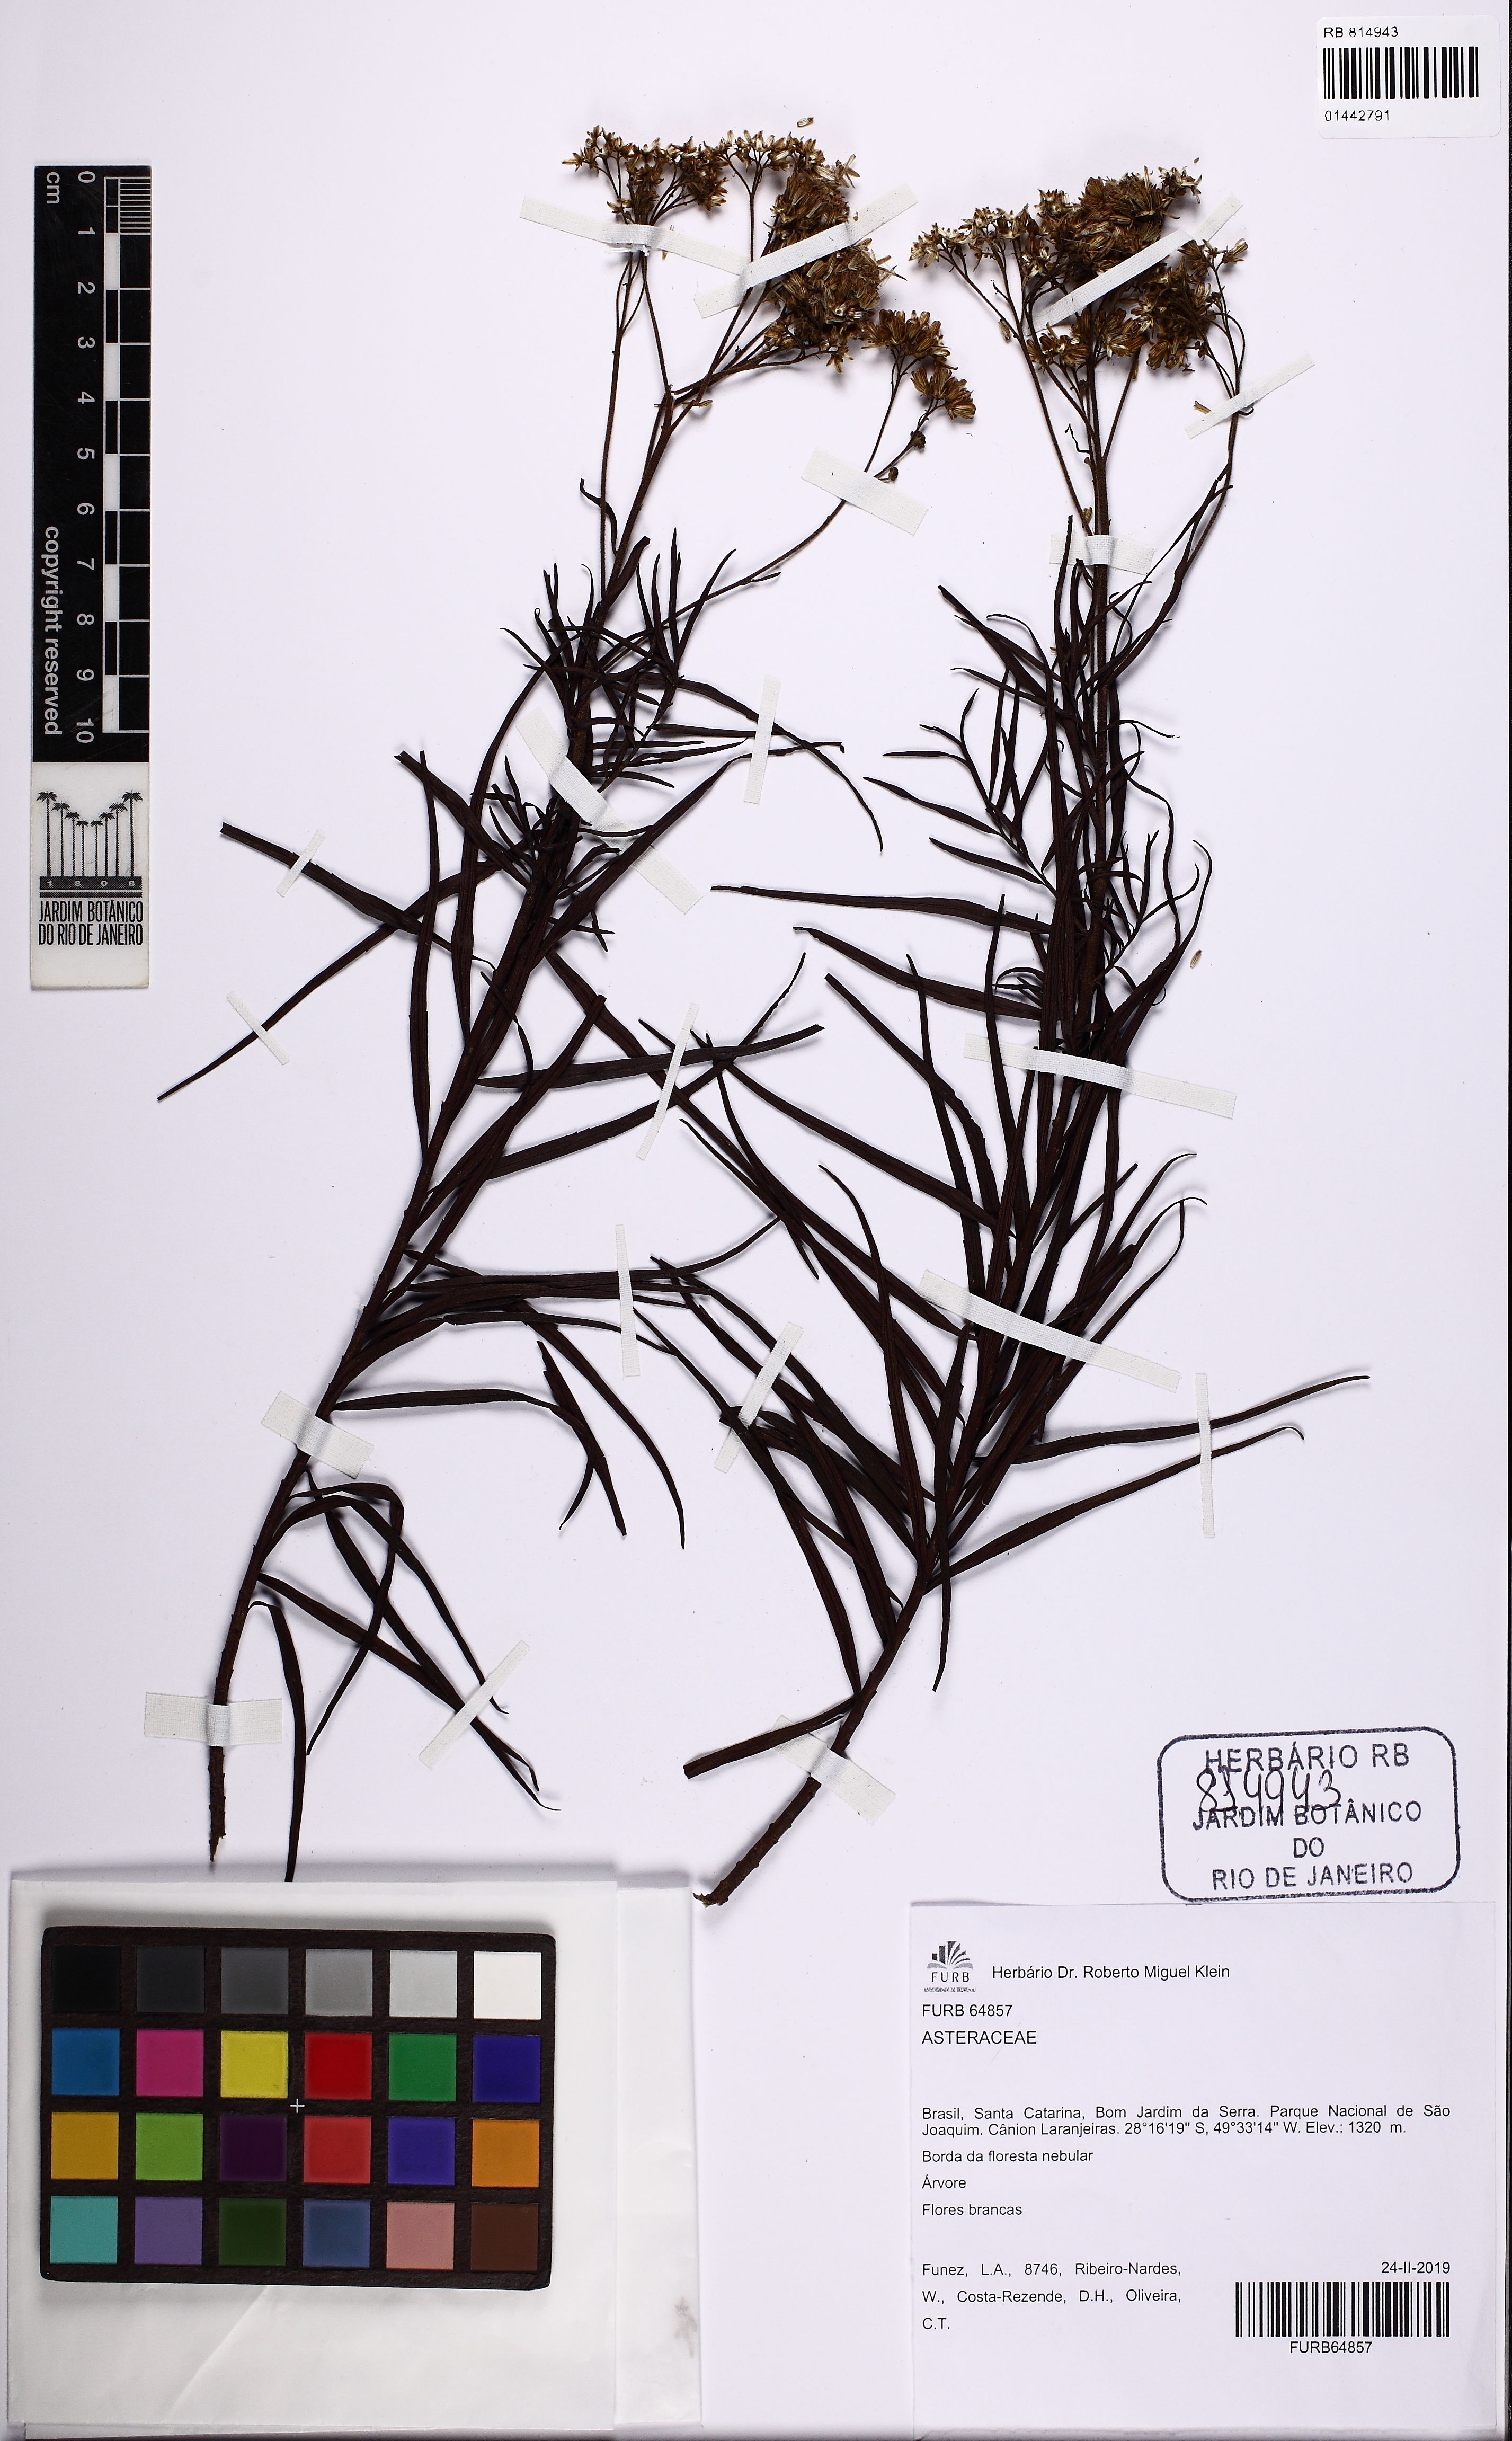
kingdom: Plantae
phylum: Tracheophyta
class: Magnoliopsida
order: Asterales
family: Asteraceae
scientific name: Asteraceae
